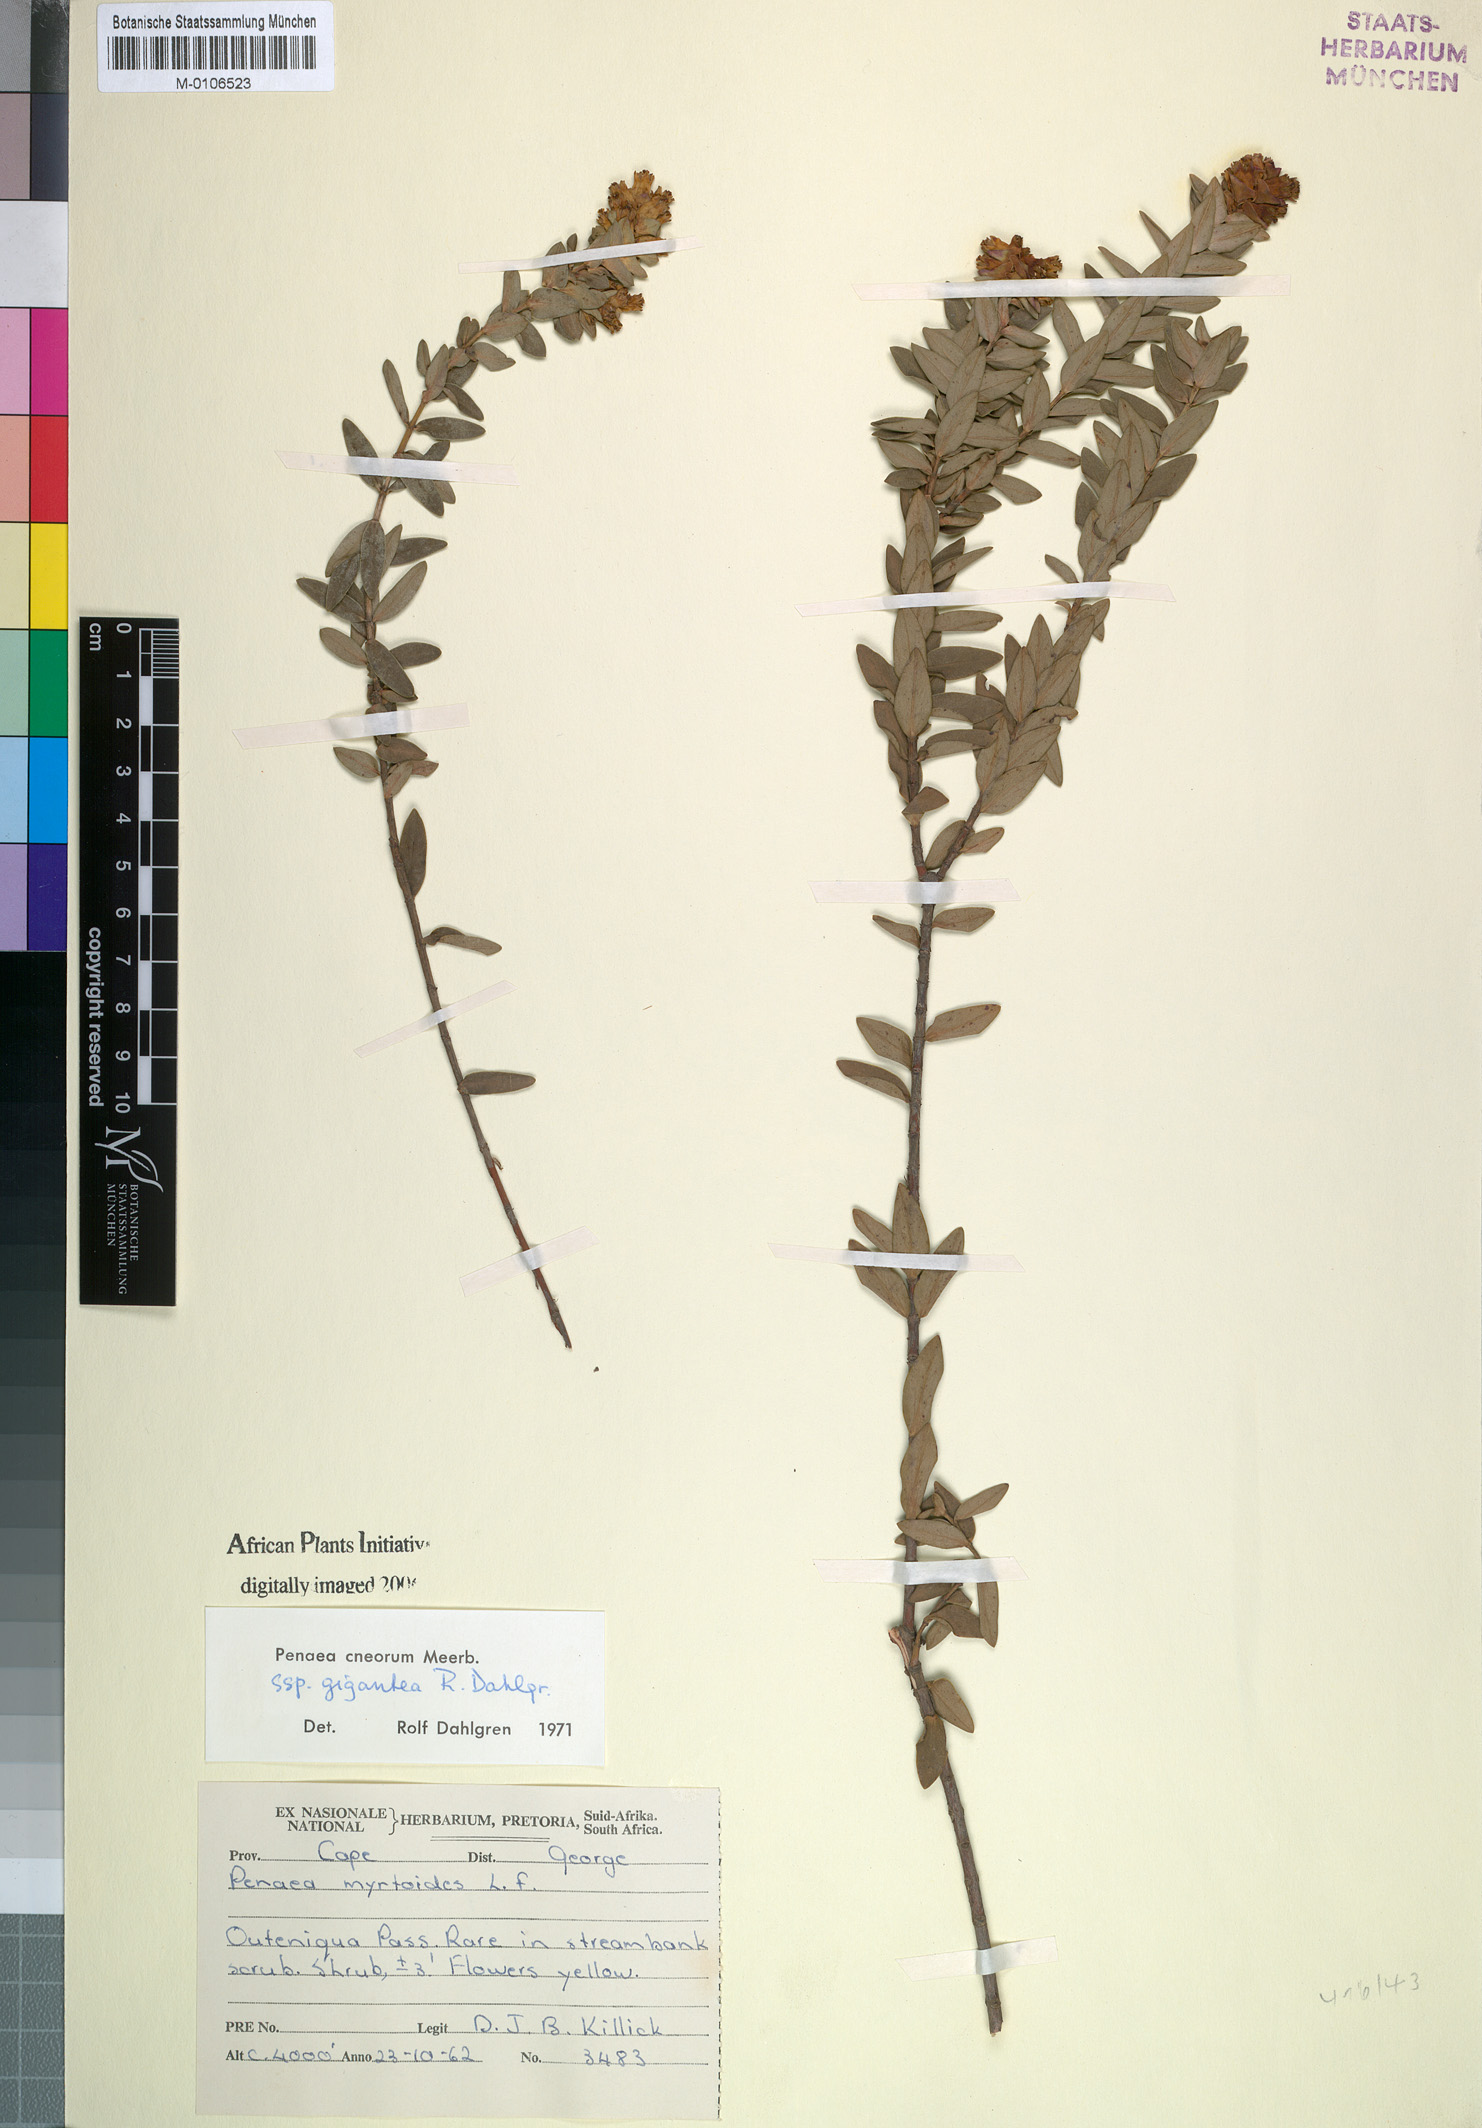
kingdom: Plantae
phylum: Tracheophyta
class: Magnoliopsida
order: Myrtales
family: Penaeaceae
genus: Penaea
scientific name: Penaea cneorum
